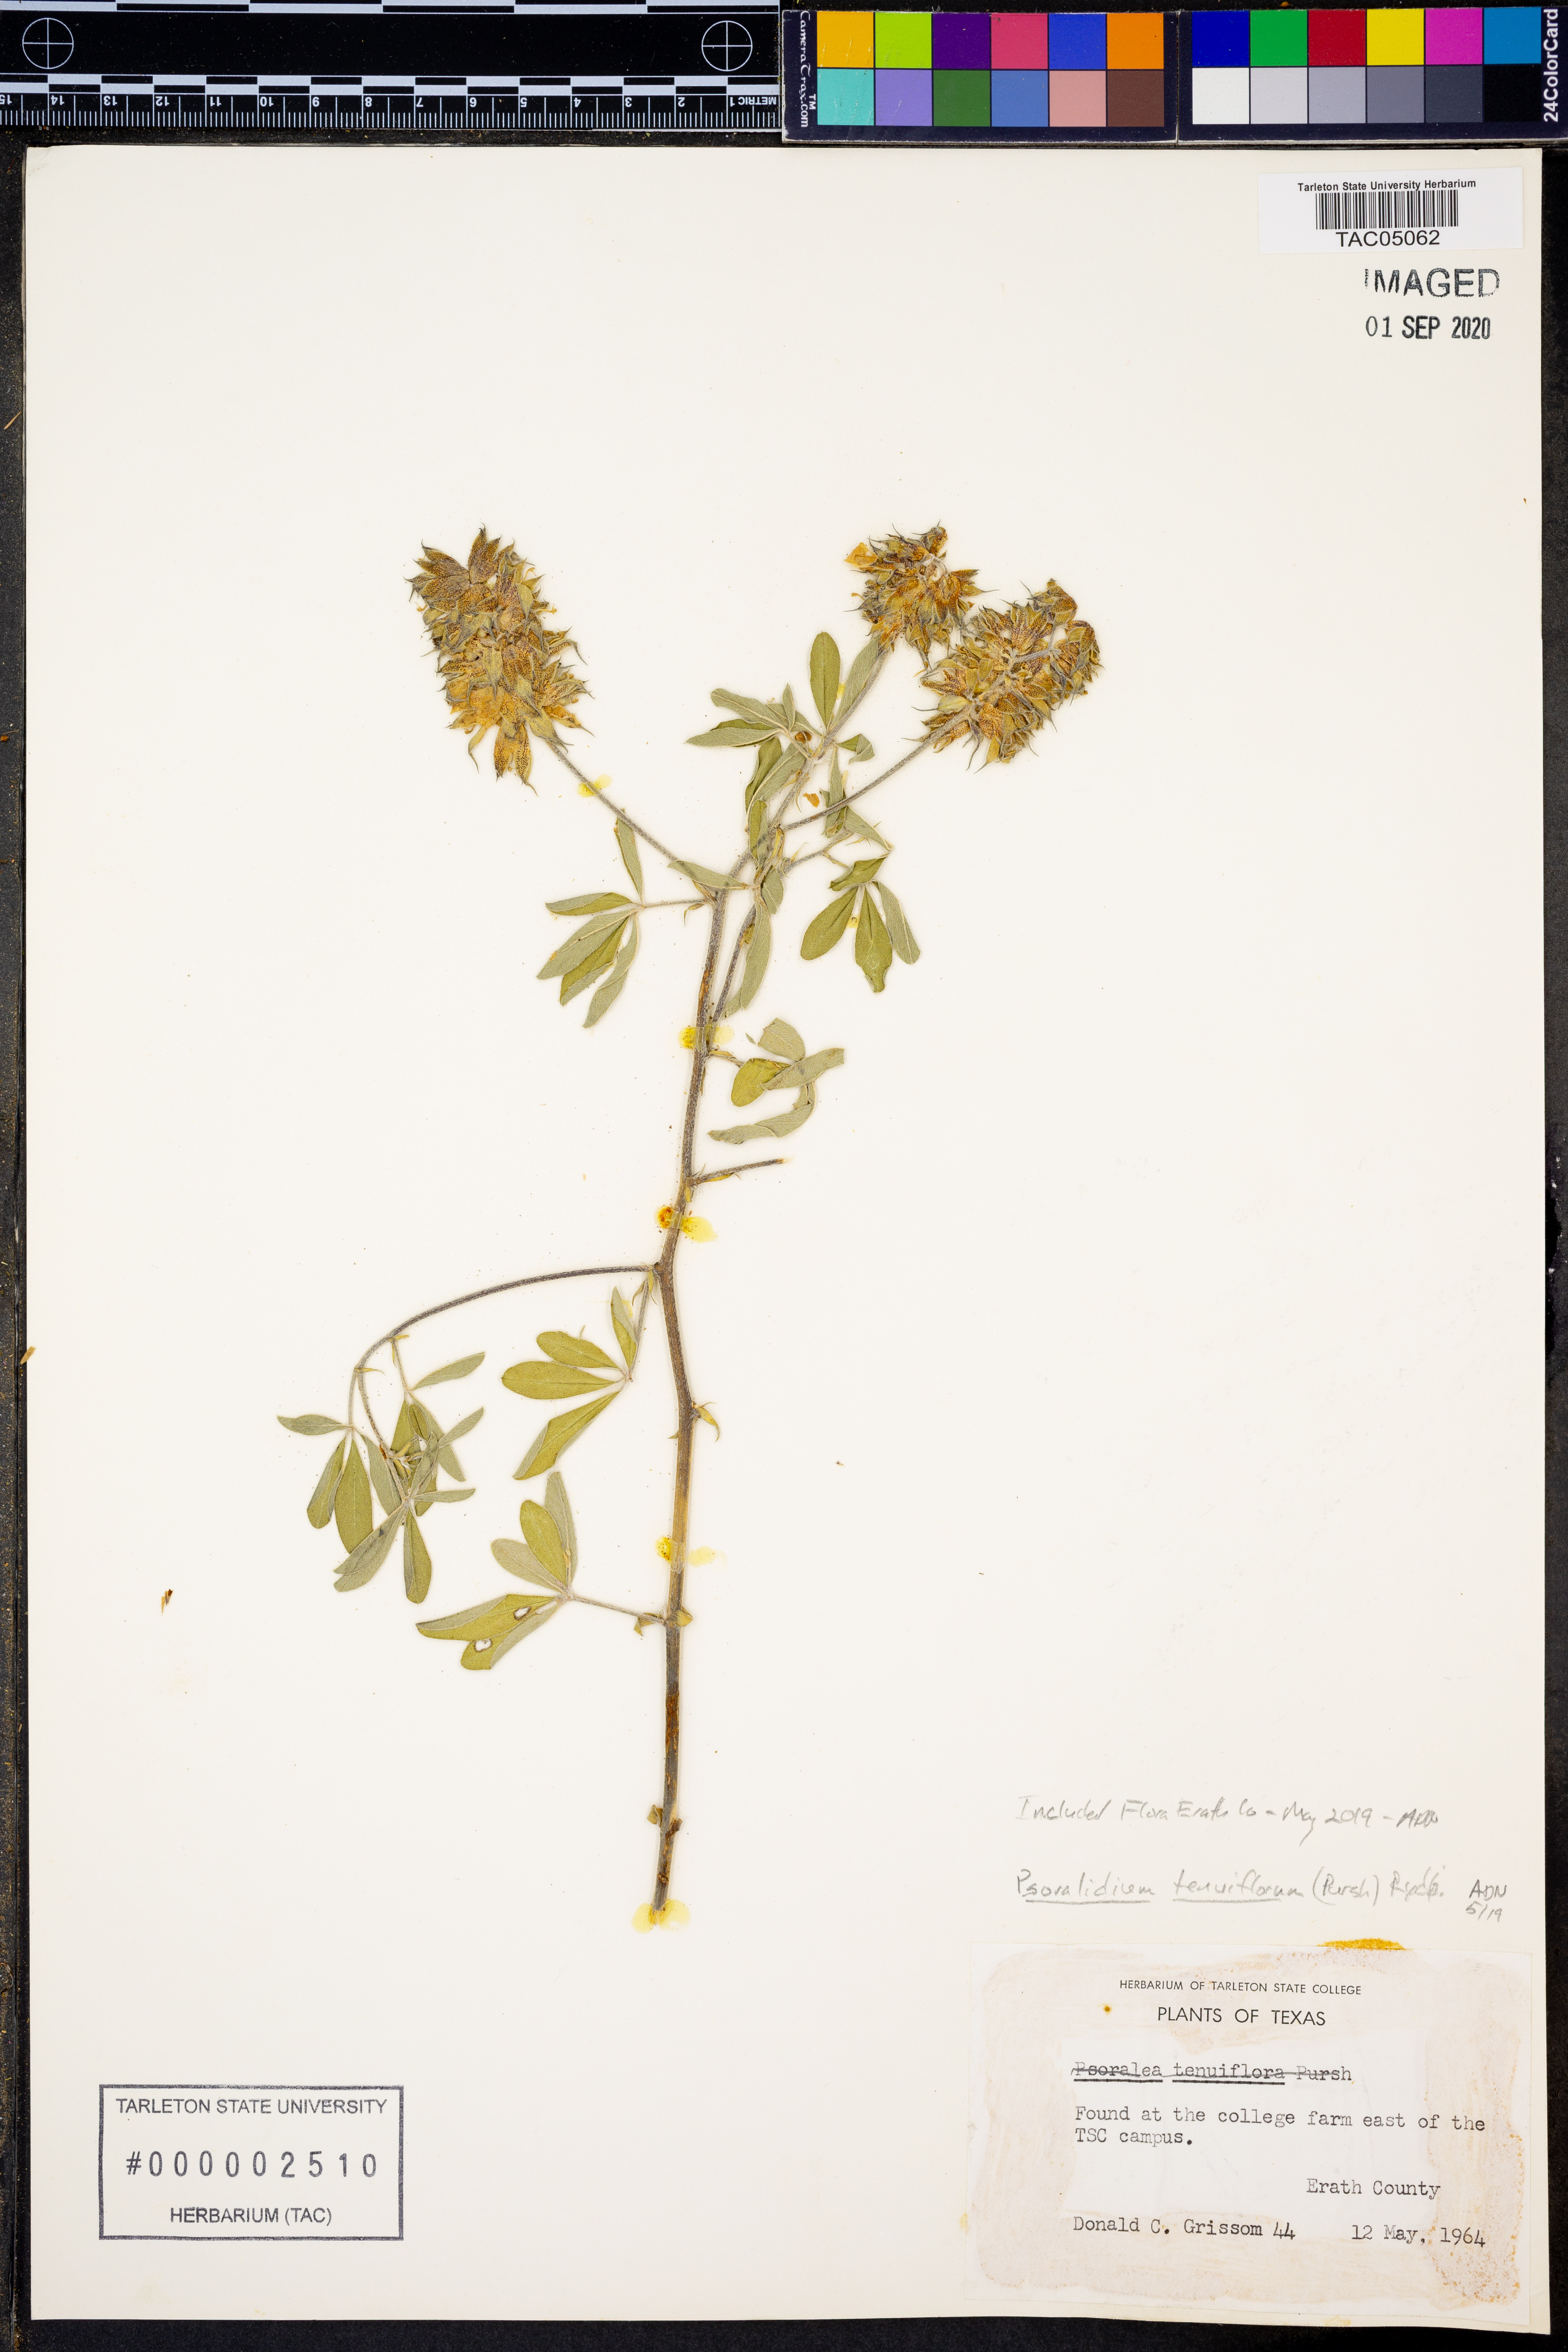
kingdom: Plantae
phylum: Tracheophyta
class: Magnoliopsida
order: Fabales
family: Fabaceae
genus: Pediomelum
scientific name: Pediomelum tenuiflorum
